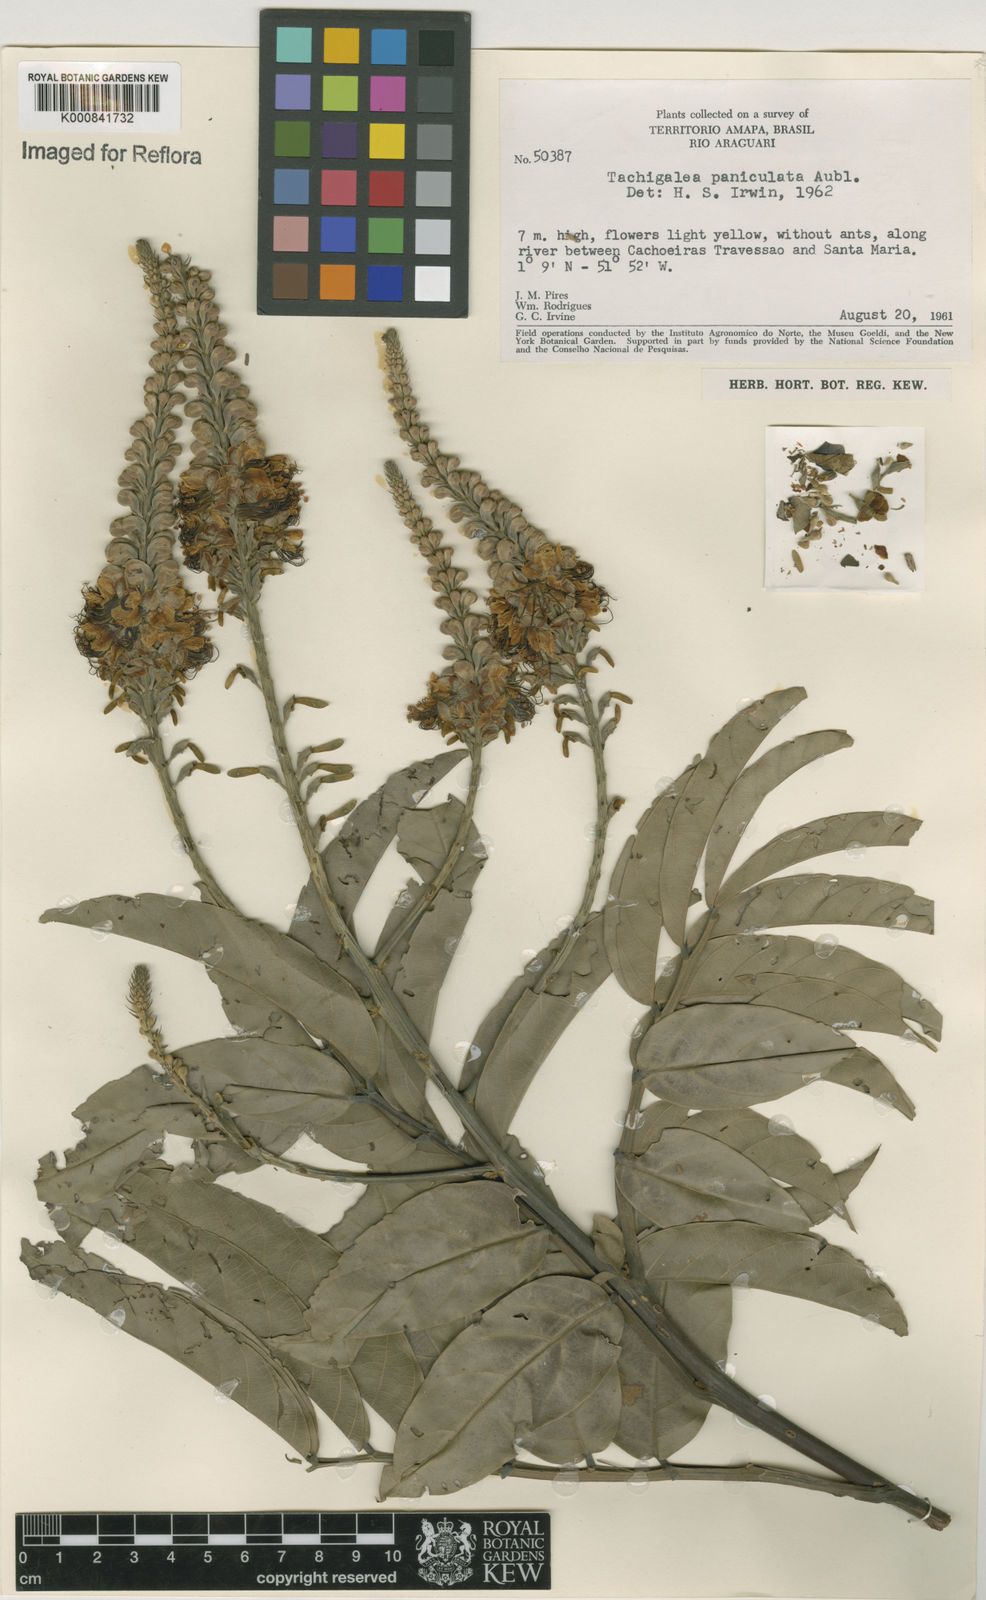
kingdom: Plantae
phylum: Tracheophyta
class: Magnoliopsida
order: Fabales
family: Fabaceae
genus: Tachigali
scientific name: Tachigali paniculata
